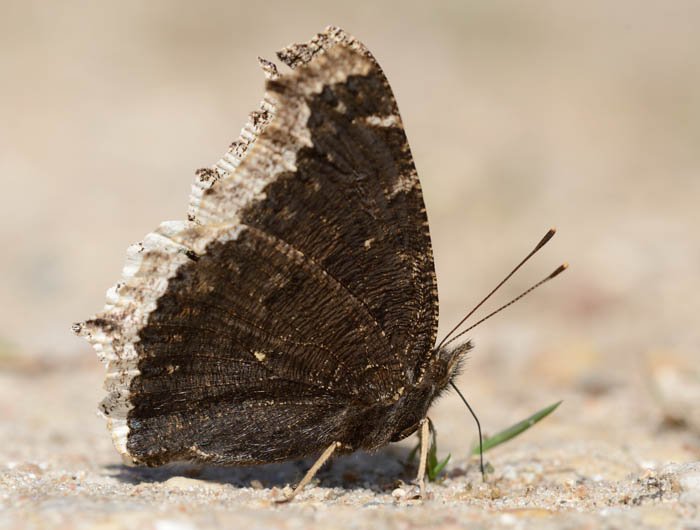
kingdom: Animalia
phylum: Arthropoda
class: Insecta
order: Lepidoptera
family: Nymphalidae
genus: Nymphalis
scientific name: Nymphalis antiopa
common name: Mourning Cloak
